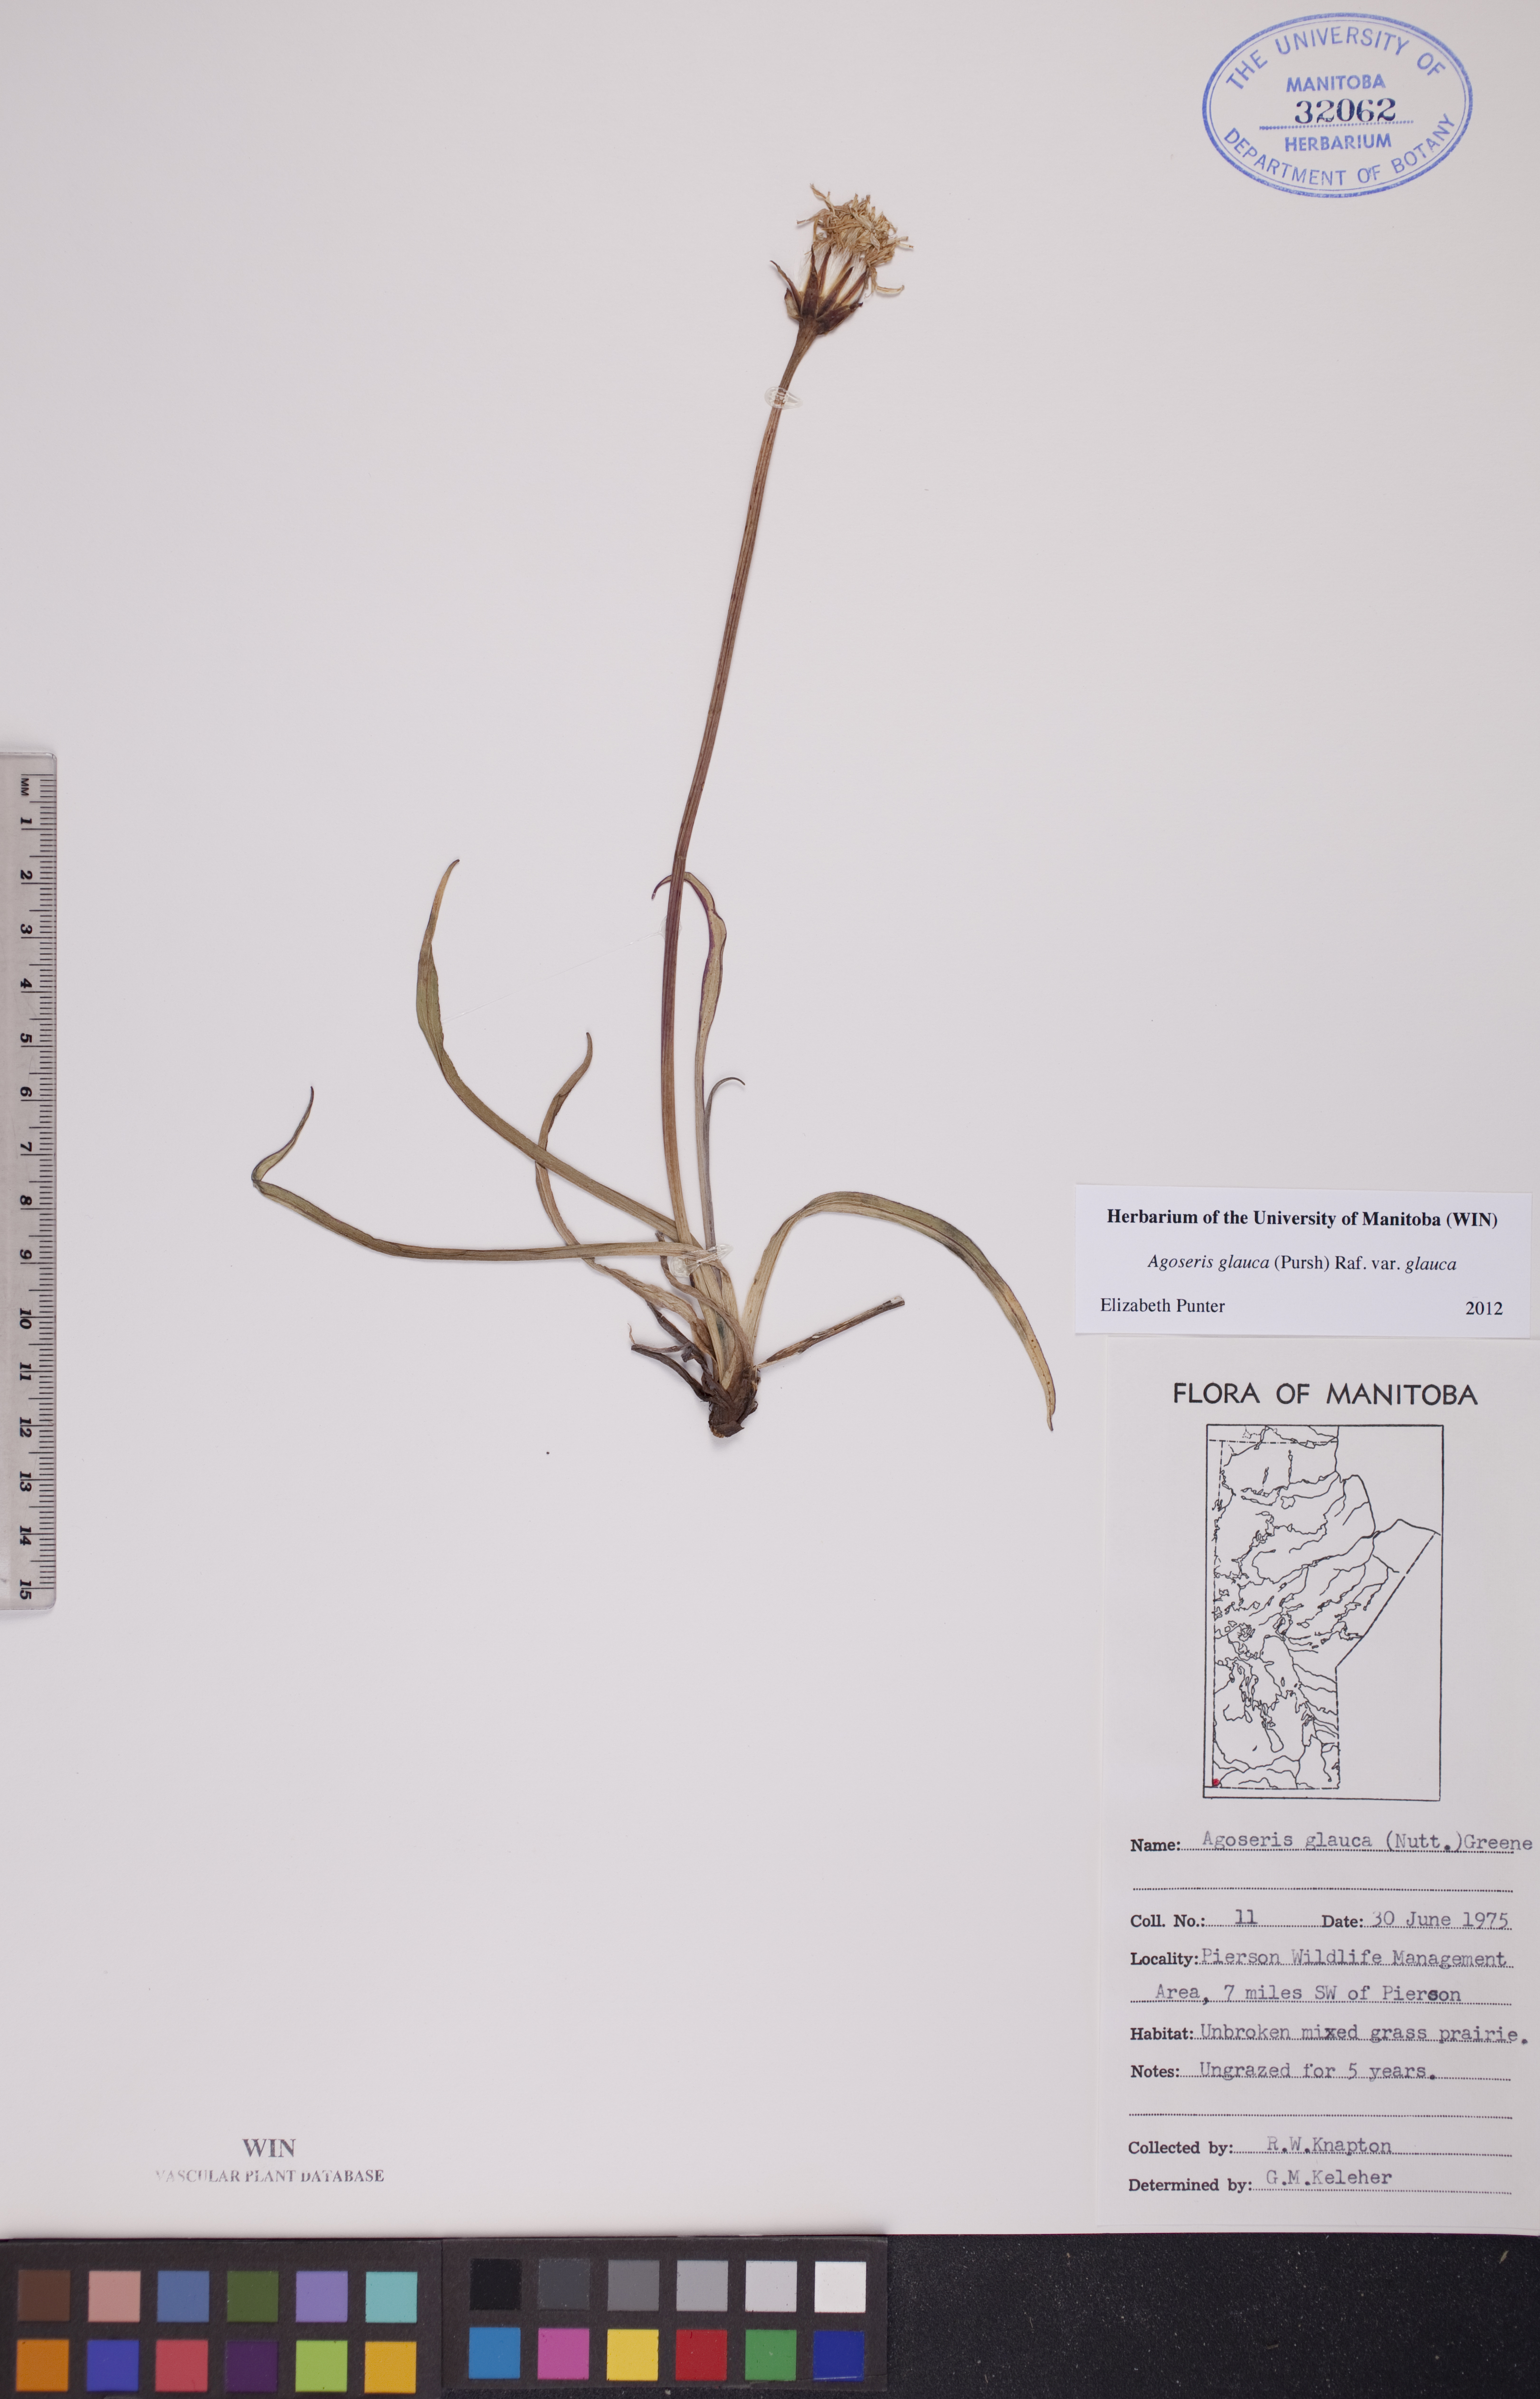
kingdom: Plantae
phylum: Tracheophyta
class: Magnoliopsida
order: Asterales
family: Asteraceae
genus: Agoseris
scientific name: Agoseris glauca
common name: Prairie agoseris
